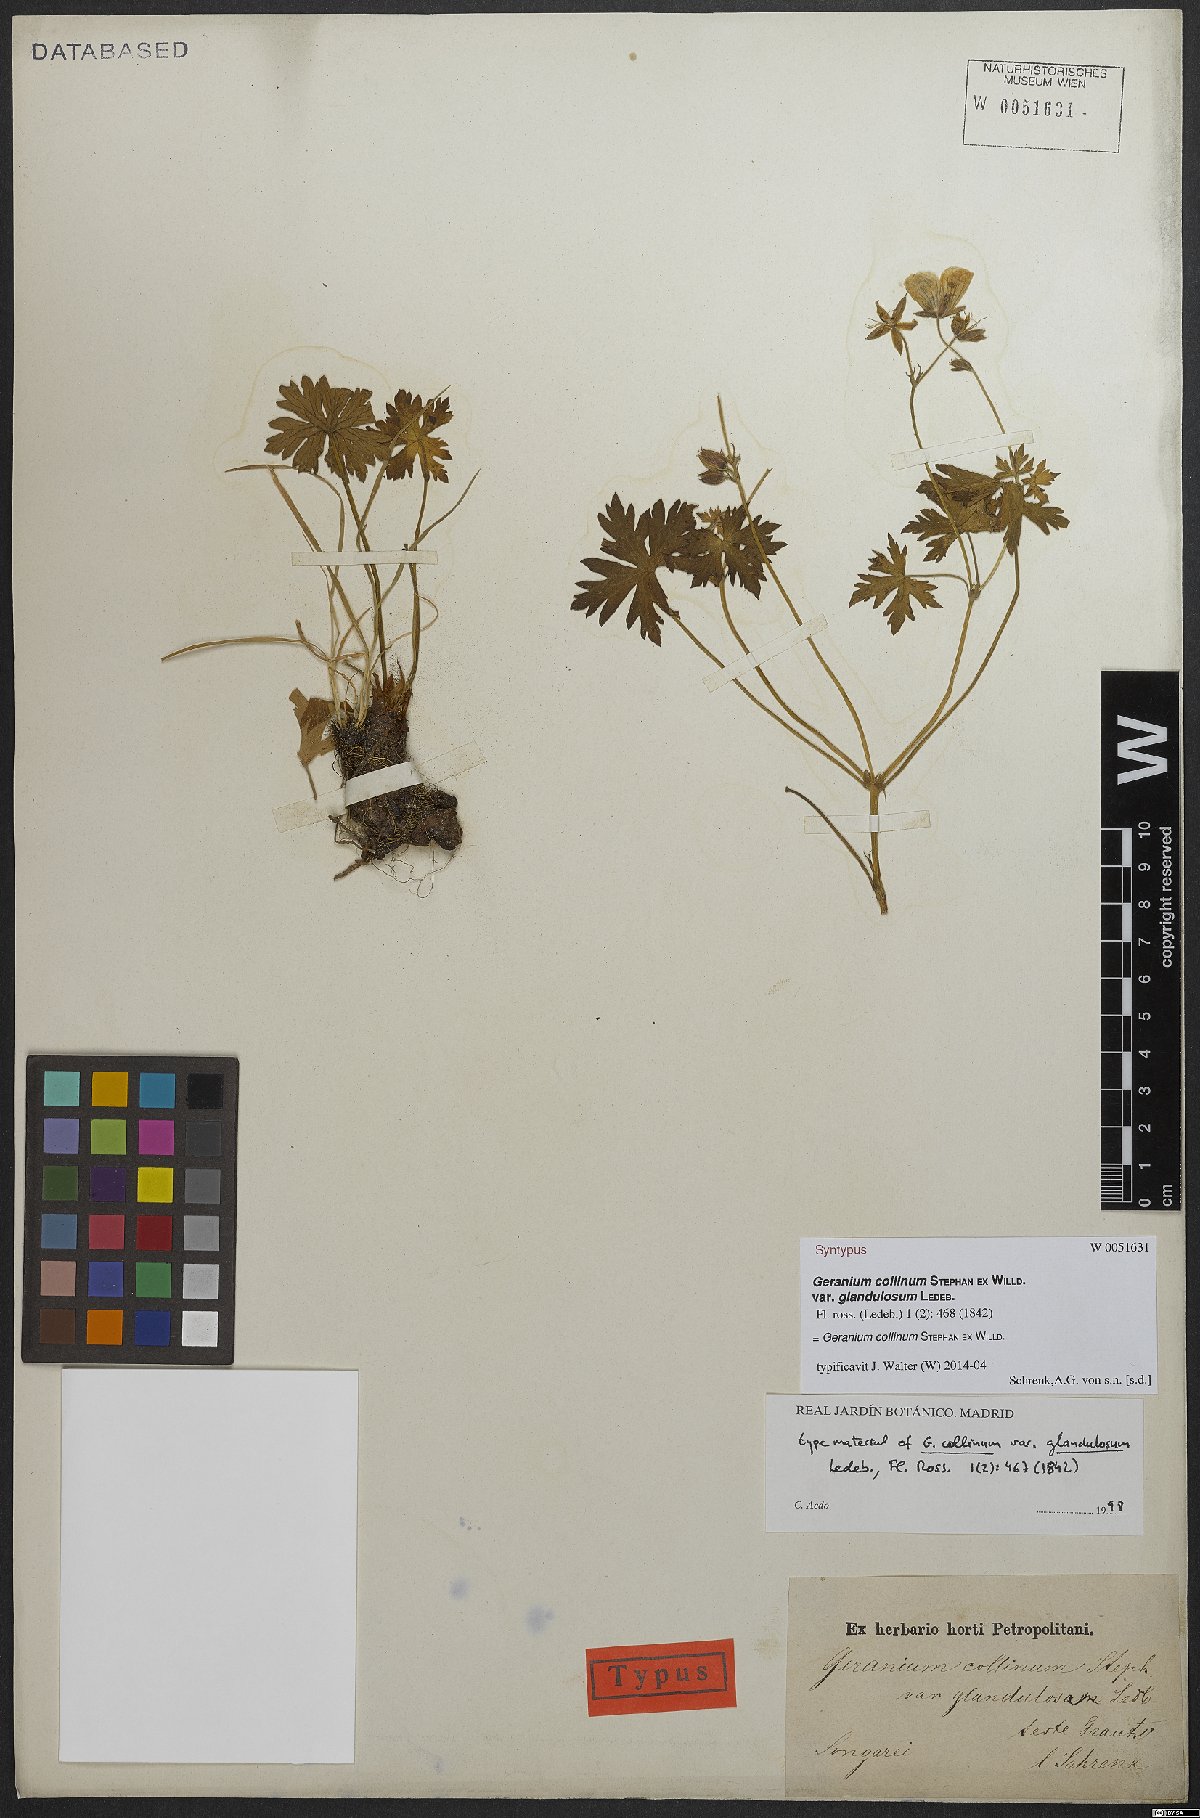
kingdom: Plantae
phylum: Tracheophyta
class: Magnoliopsida
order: Geraniales
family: Geraniaceae
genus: Geranium
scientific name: Geranium collinum
